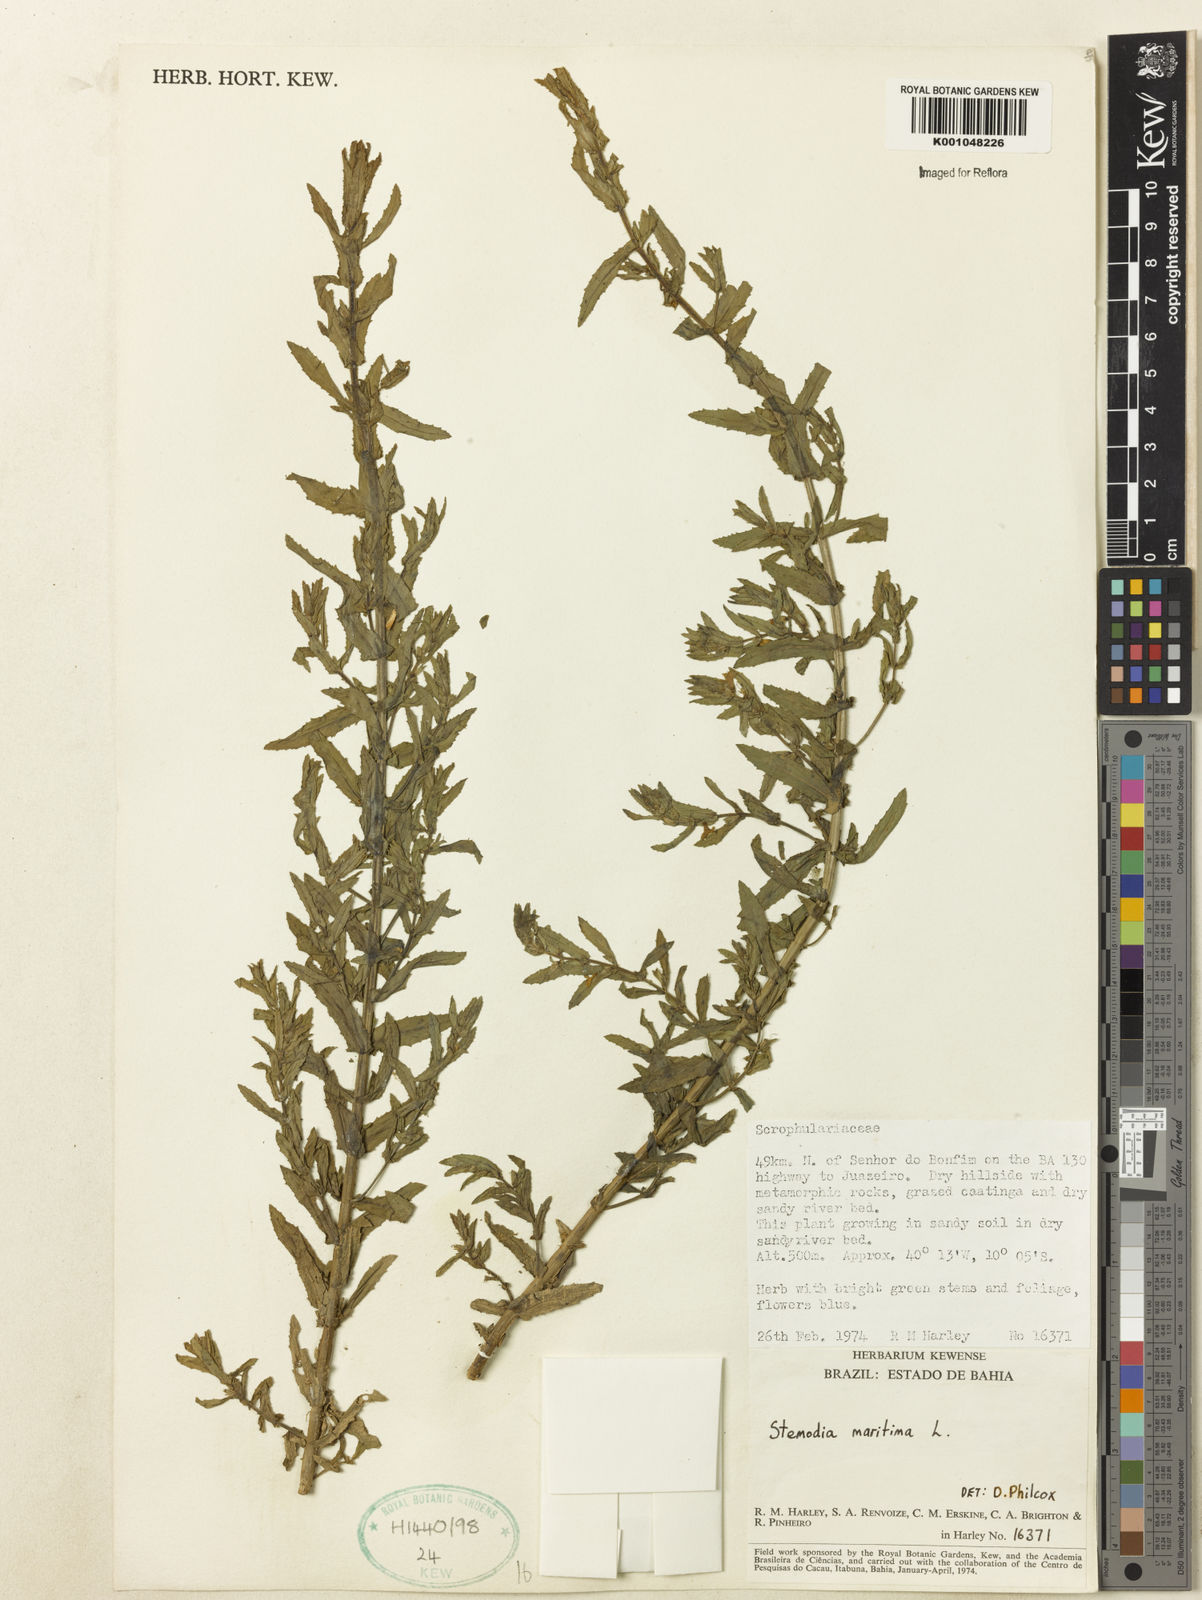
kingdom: Plantae
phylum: Tracheophyta
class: Magnoliopsida
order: Lamiales
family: Plantaginaceae
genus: Stemodia
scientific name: Stemodia maritima
